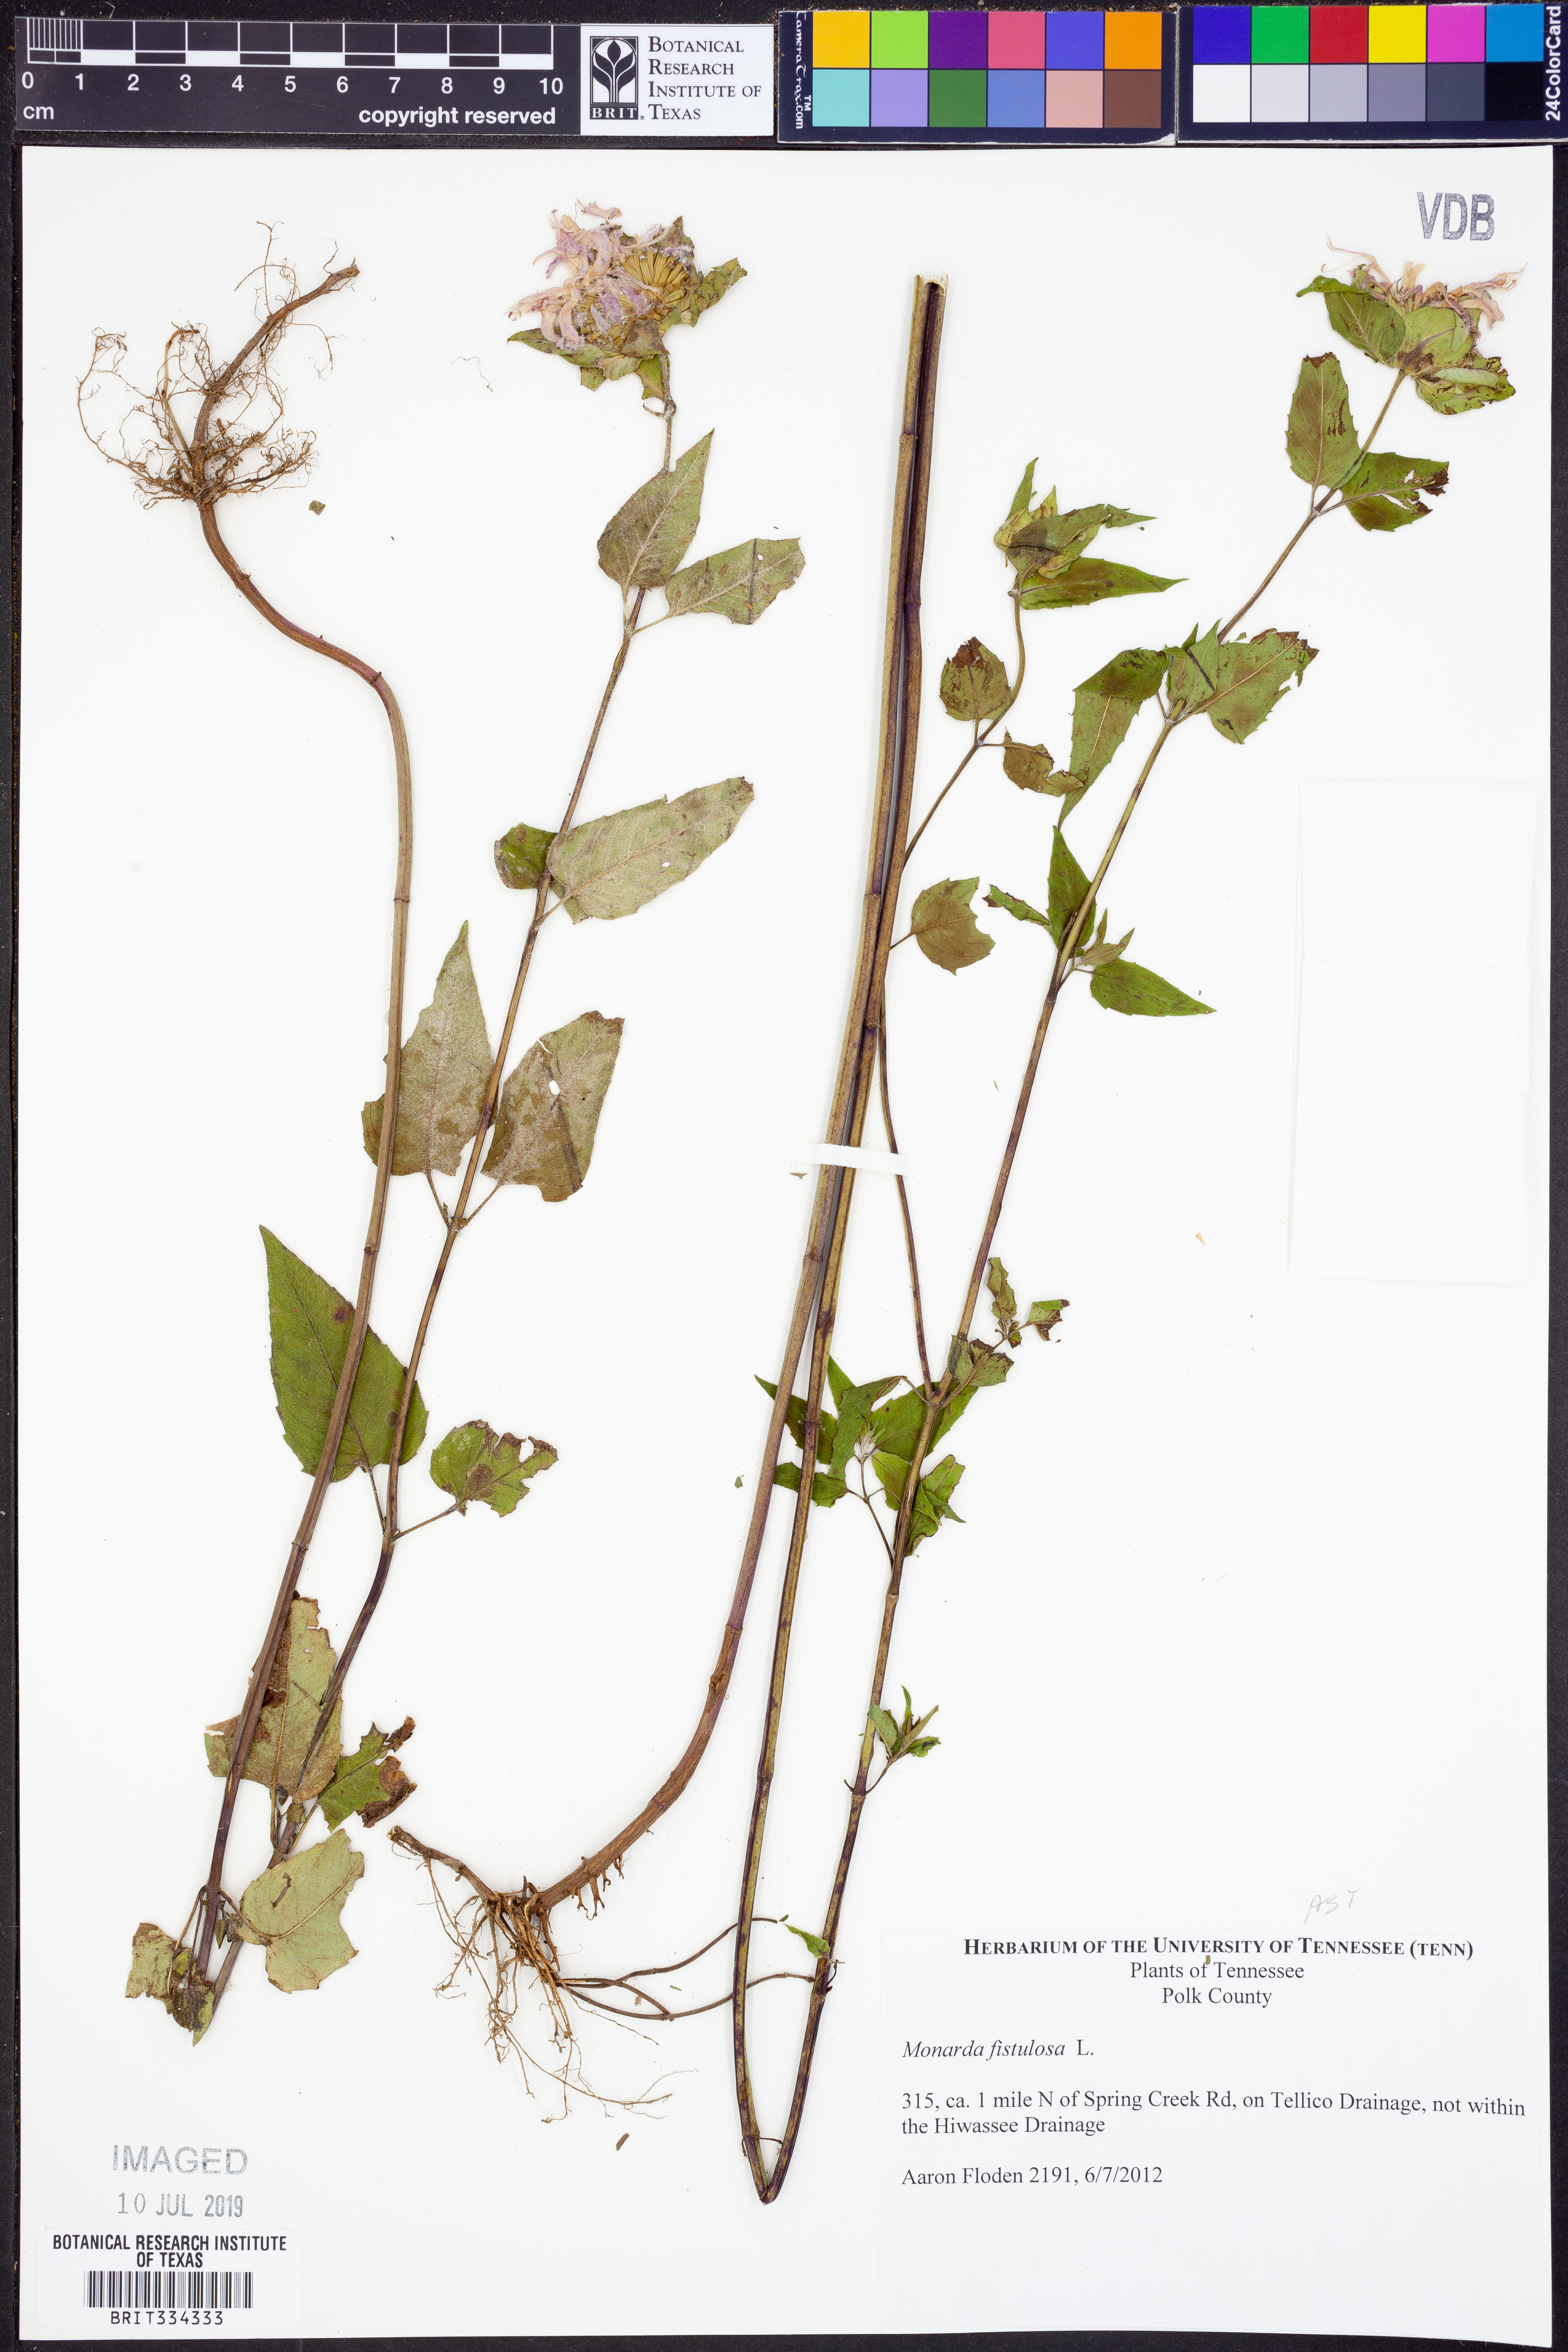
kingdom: Plantae
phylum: Tracheophyta
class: Magnoliopsida
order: Lamiales
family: Lamiaceae
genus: Monarda
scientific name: Monarda fistulosa
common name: Purple beebalm
